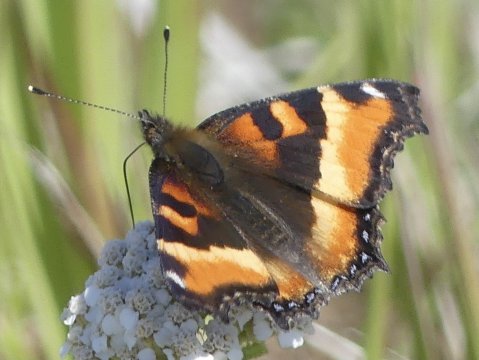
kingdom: Animalia
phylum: Arthropoda
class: Insecta
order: Lepidoptera
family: Nymphalidae
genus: Aglais
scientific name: Aglais milberti
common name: Milbert's Tortoiseshell
